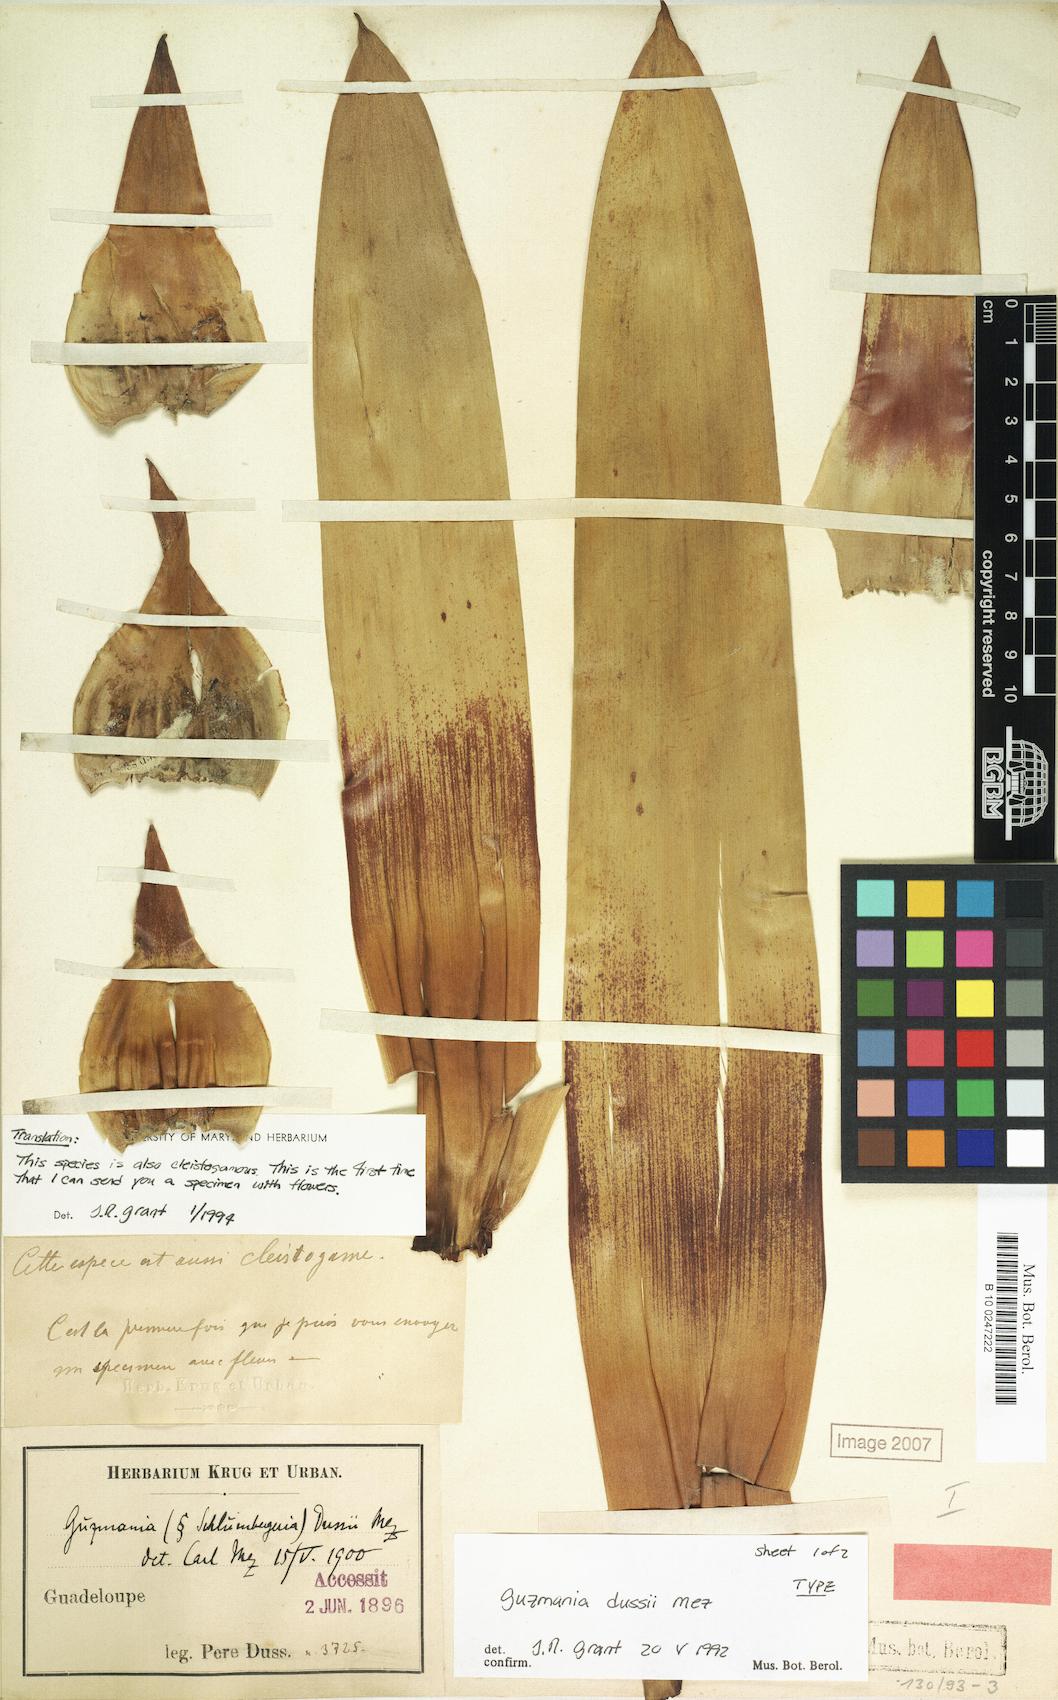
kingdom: Plantae
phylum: Tracheophyta
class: Liliopsida
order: Poales
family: Bromeliaceae
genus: Guzmania
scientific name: Guzmania
